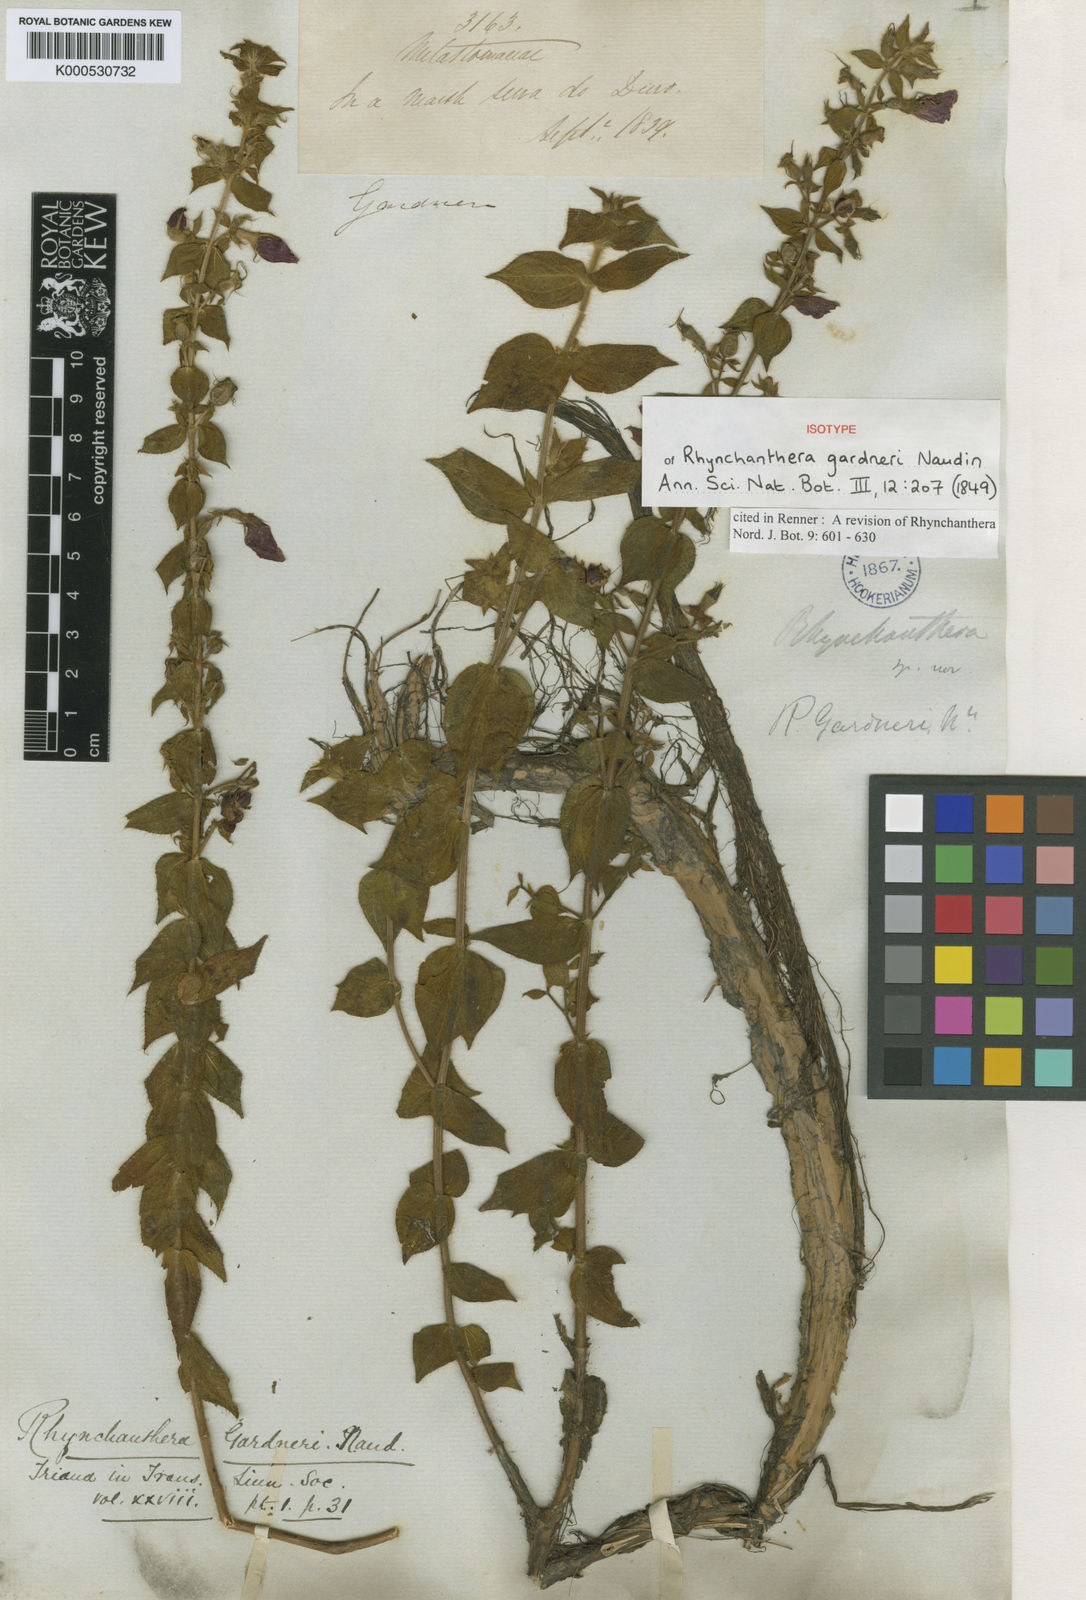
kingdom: Plantae
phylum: Tracheophyta
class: Magnoliopsida
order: Myrtales
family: Melastomataceae
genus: Rhynchanthera
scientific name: Rhynchanthera gardneri
